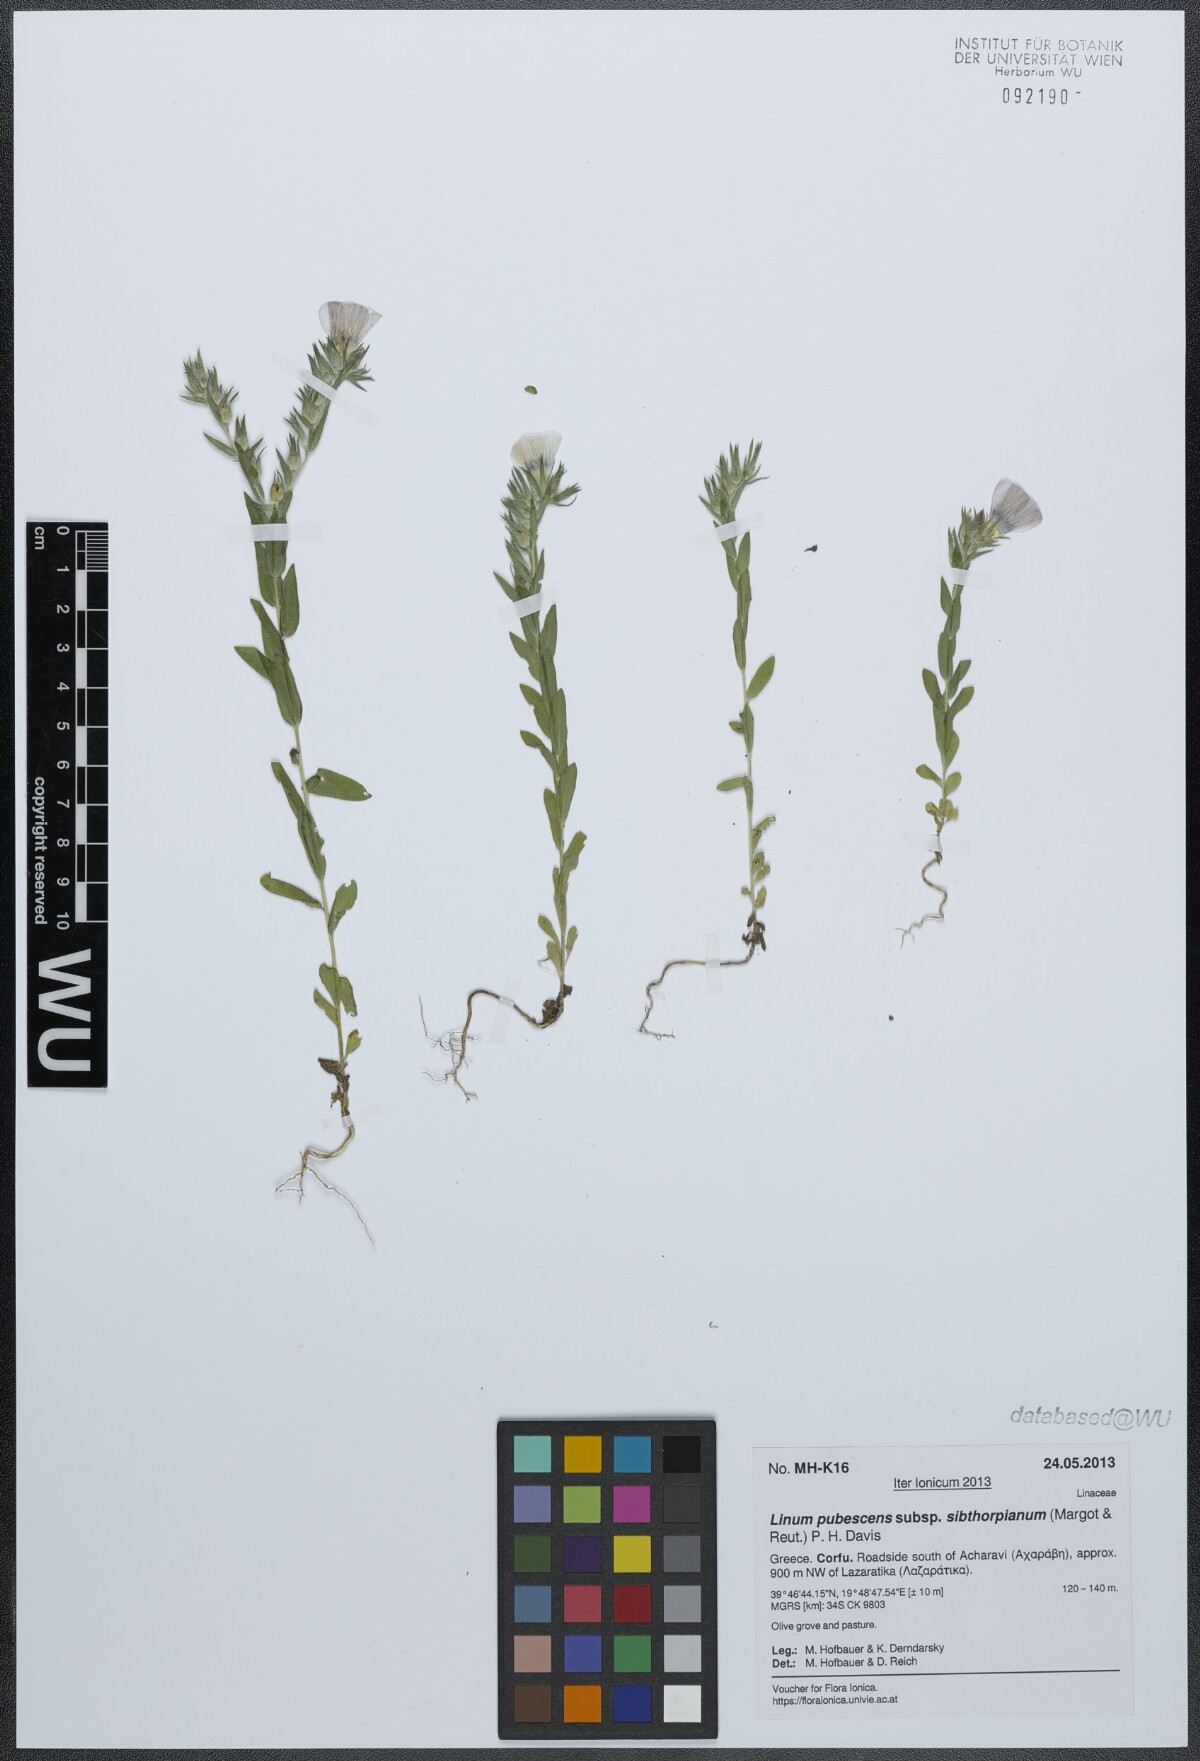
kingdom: Plantae
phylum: Tracheophyta
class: Magnoliopsida
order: Malpighiales
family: Linaceae
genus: Linum
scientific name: Linum pubescens
